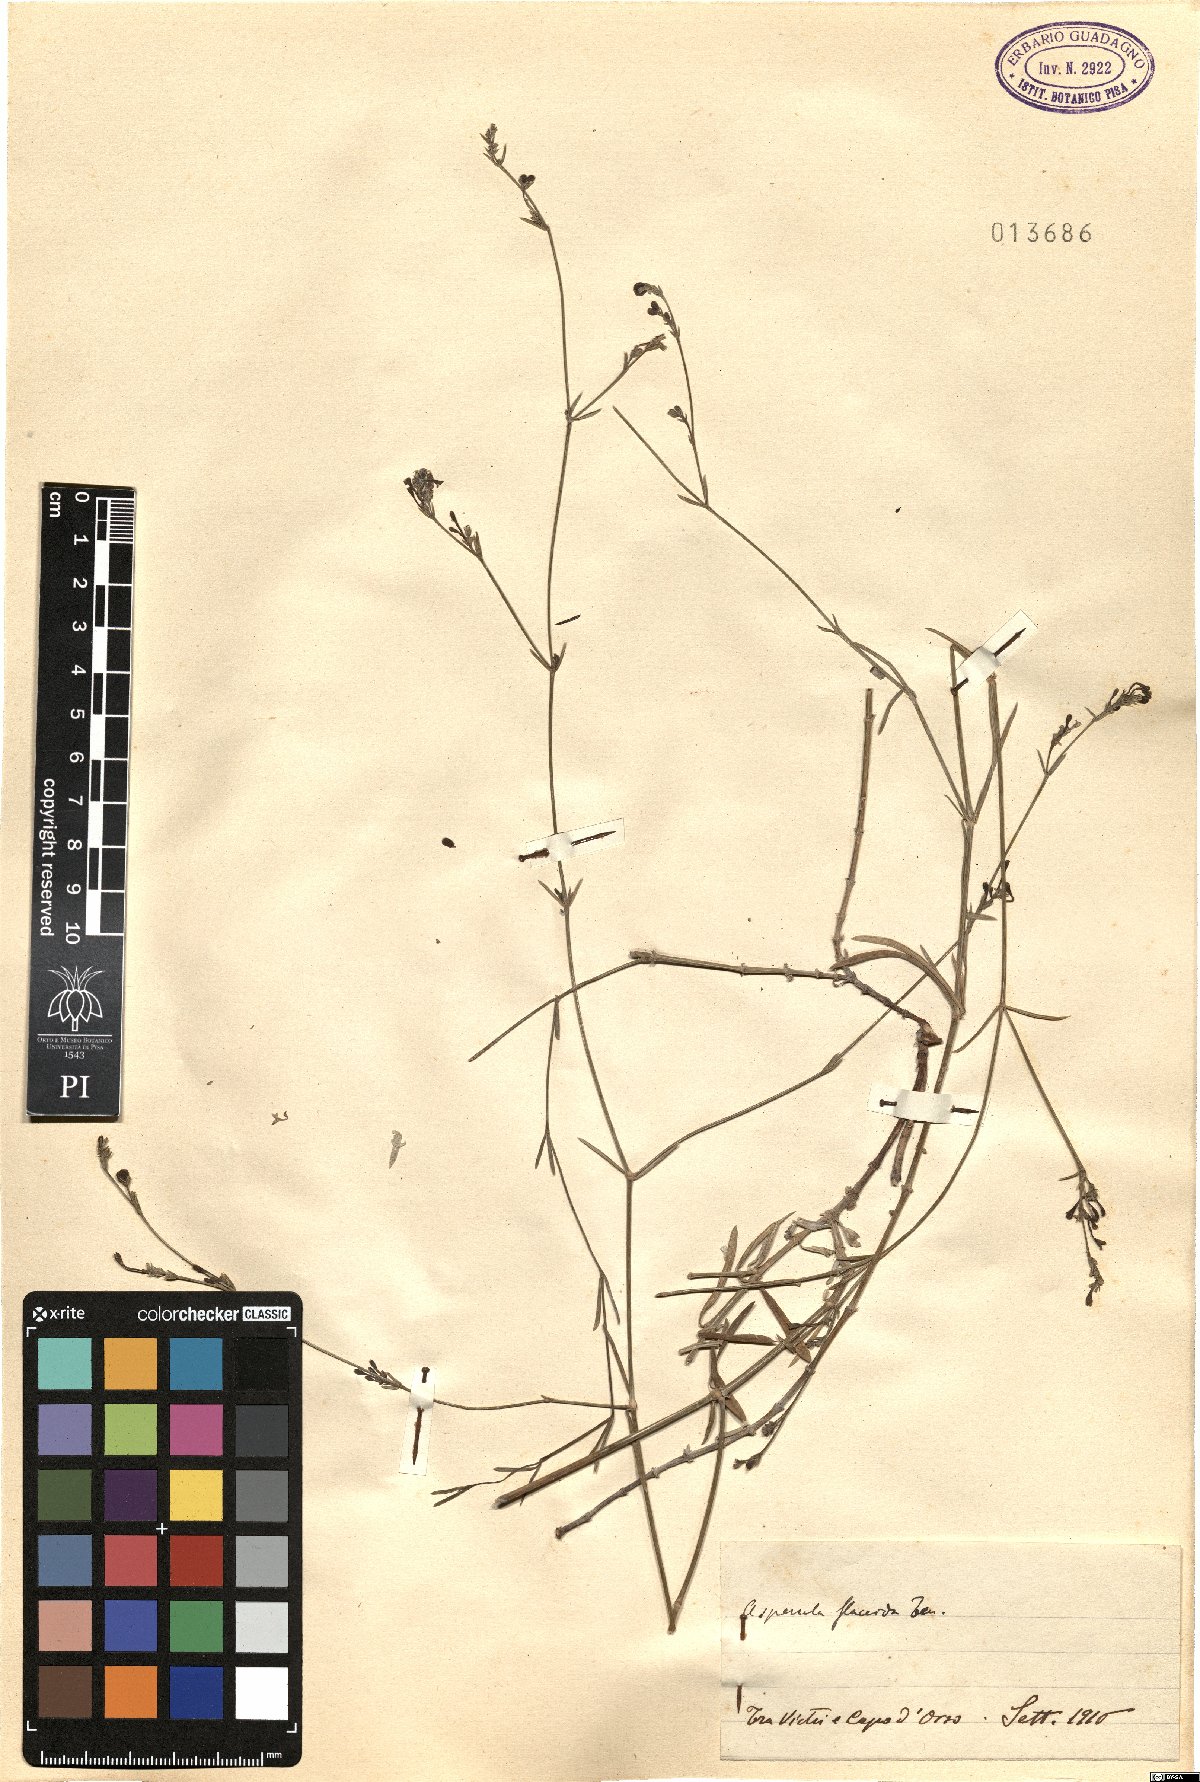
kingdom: Plantae
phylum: Tracheophyta
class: Magnoliopsida
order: Gentianales
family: Rubiaceae
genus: Cynanchica
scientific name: Cynanchica aristata
